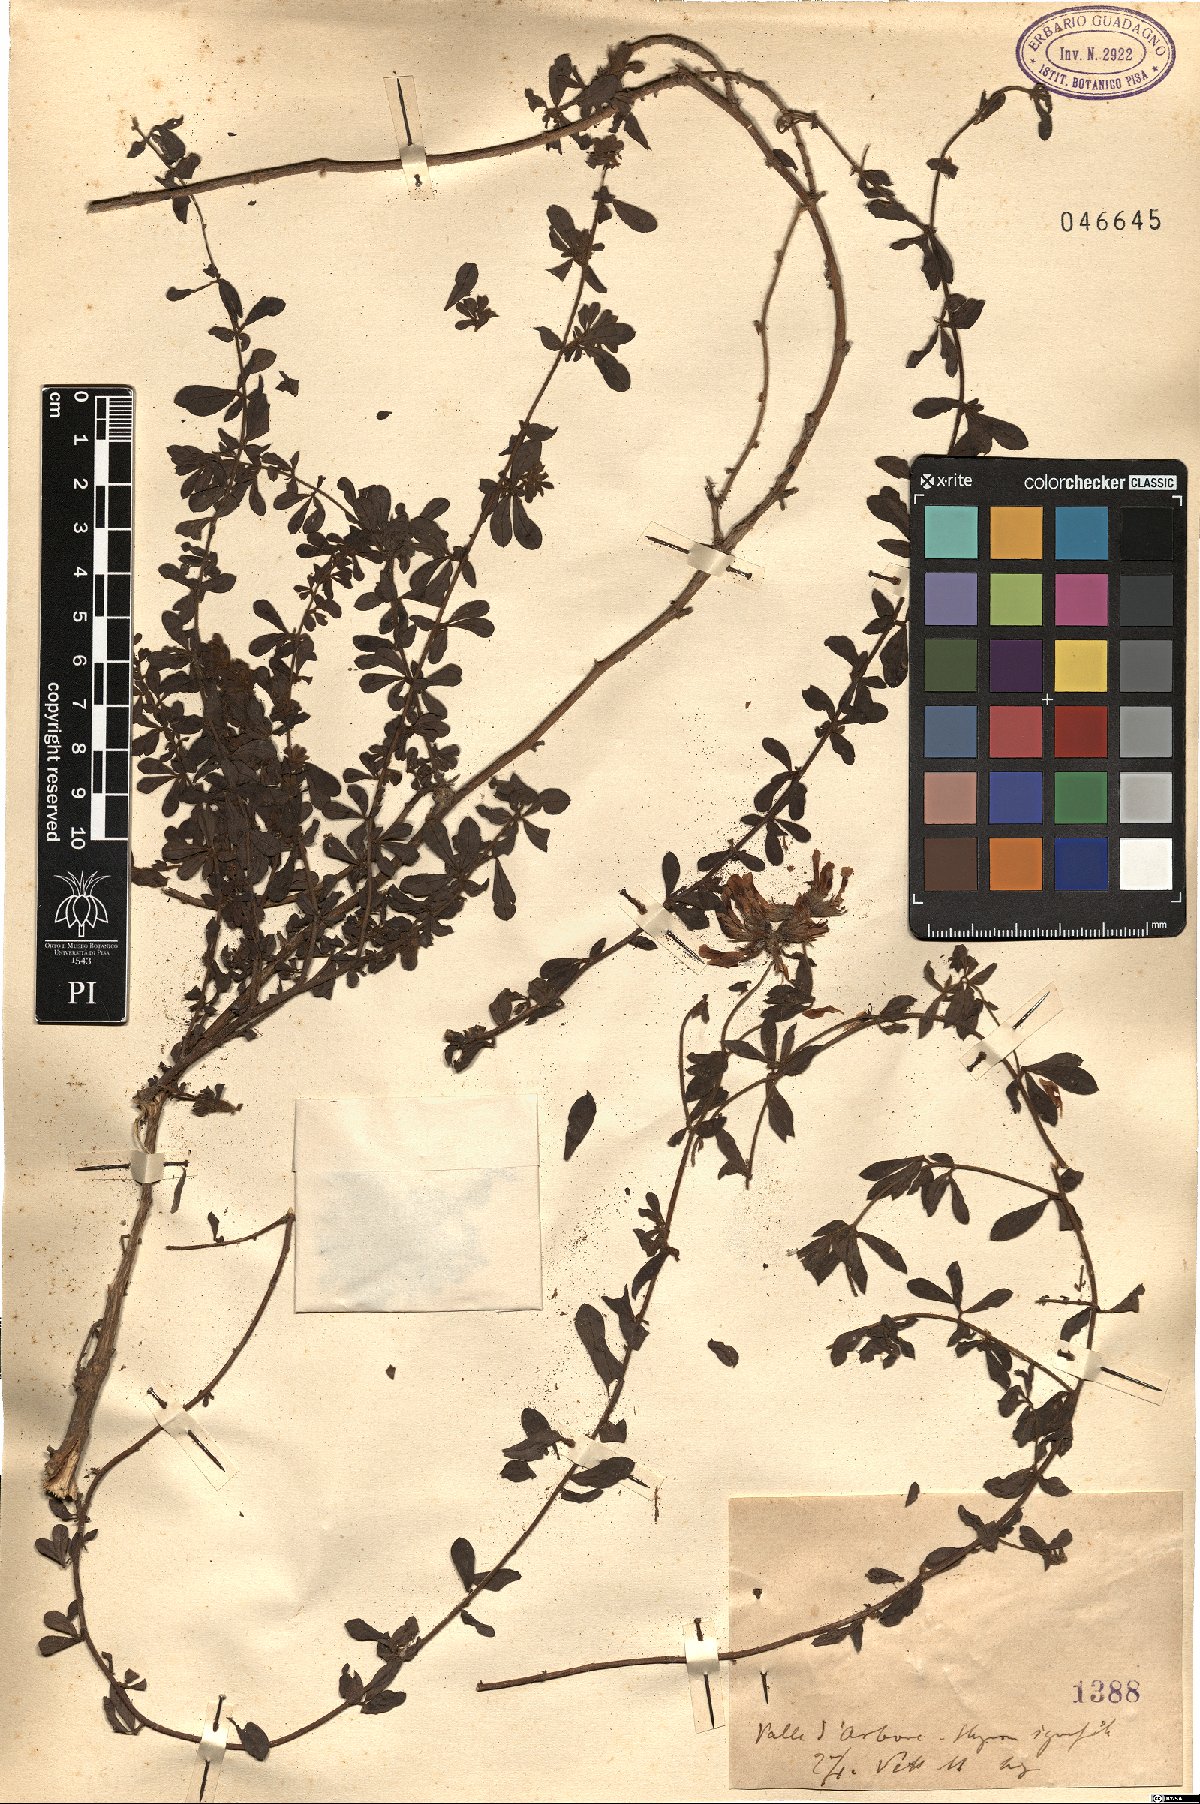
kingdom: Plantae
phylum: Tracheophyta
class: Magnoliopsida
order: Fabales
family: Fabaceae
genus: Lotus
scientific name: Lotus
